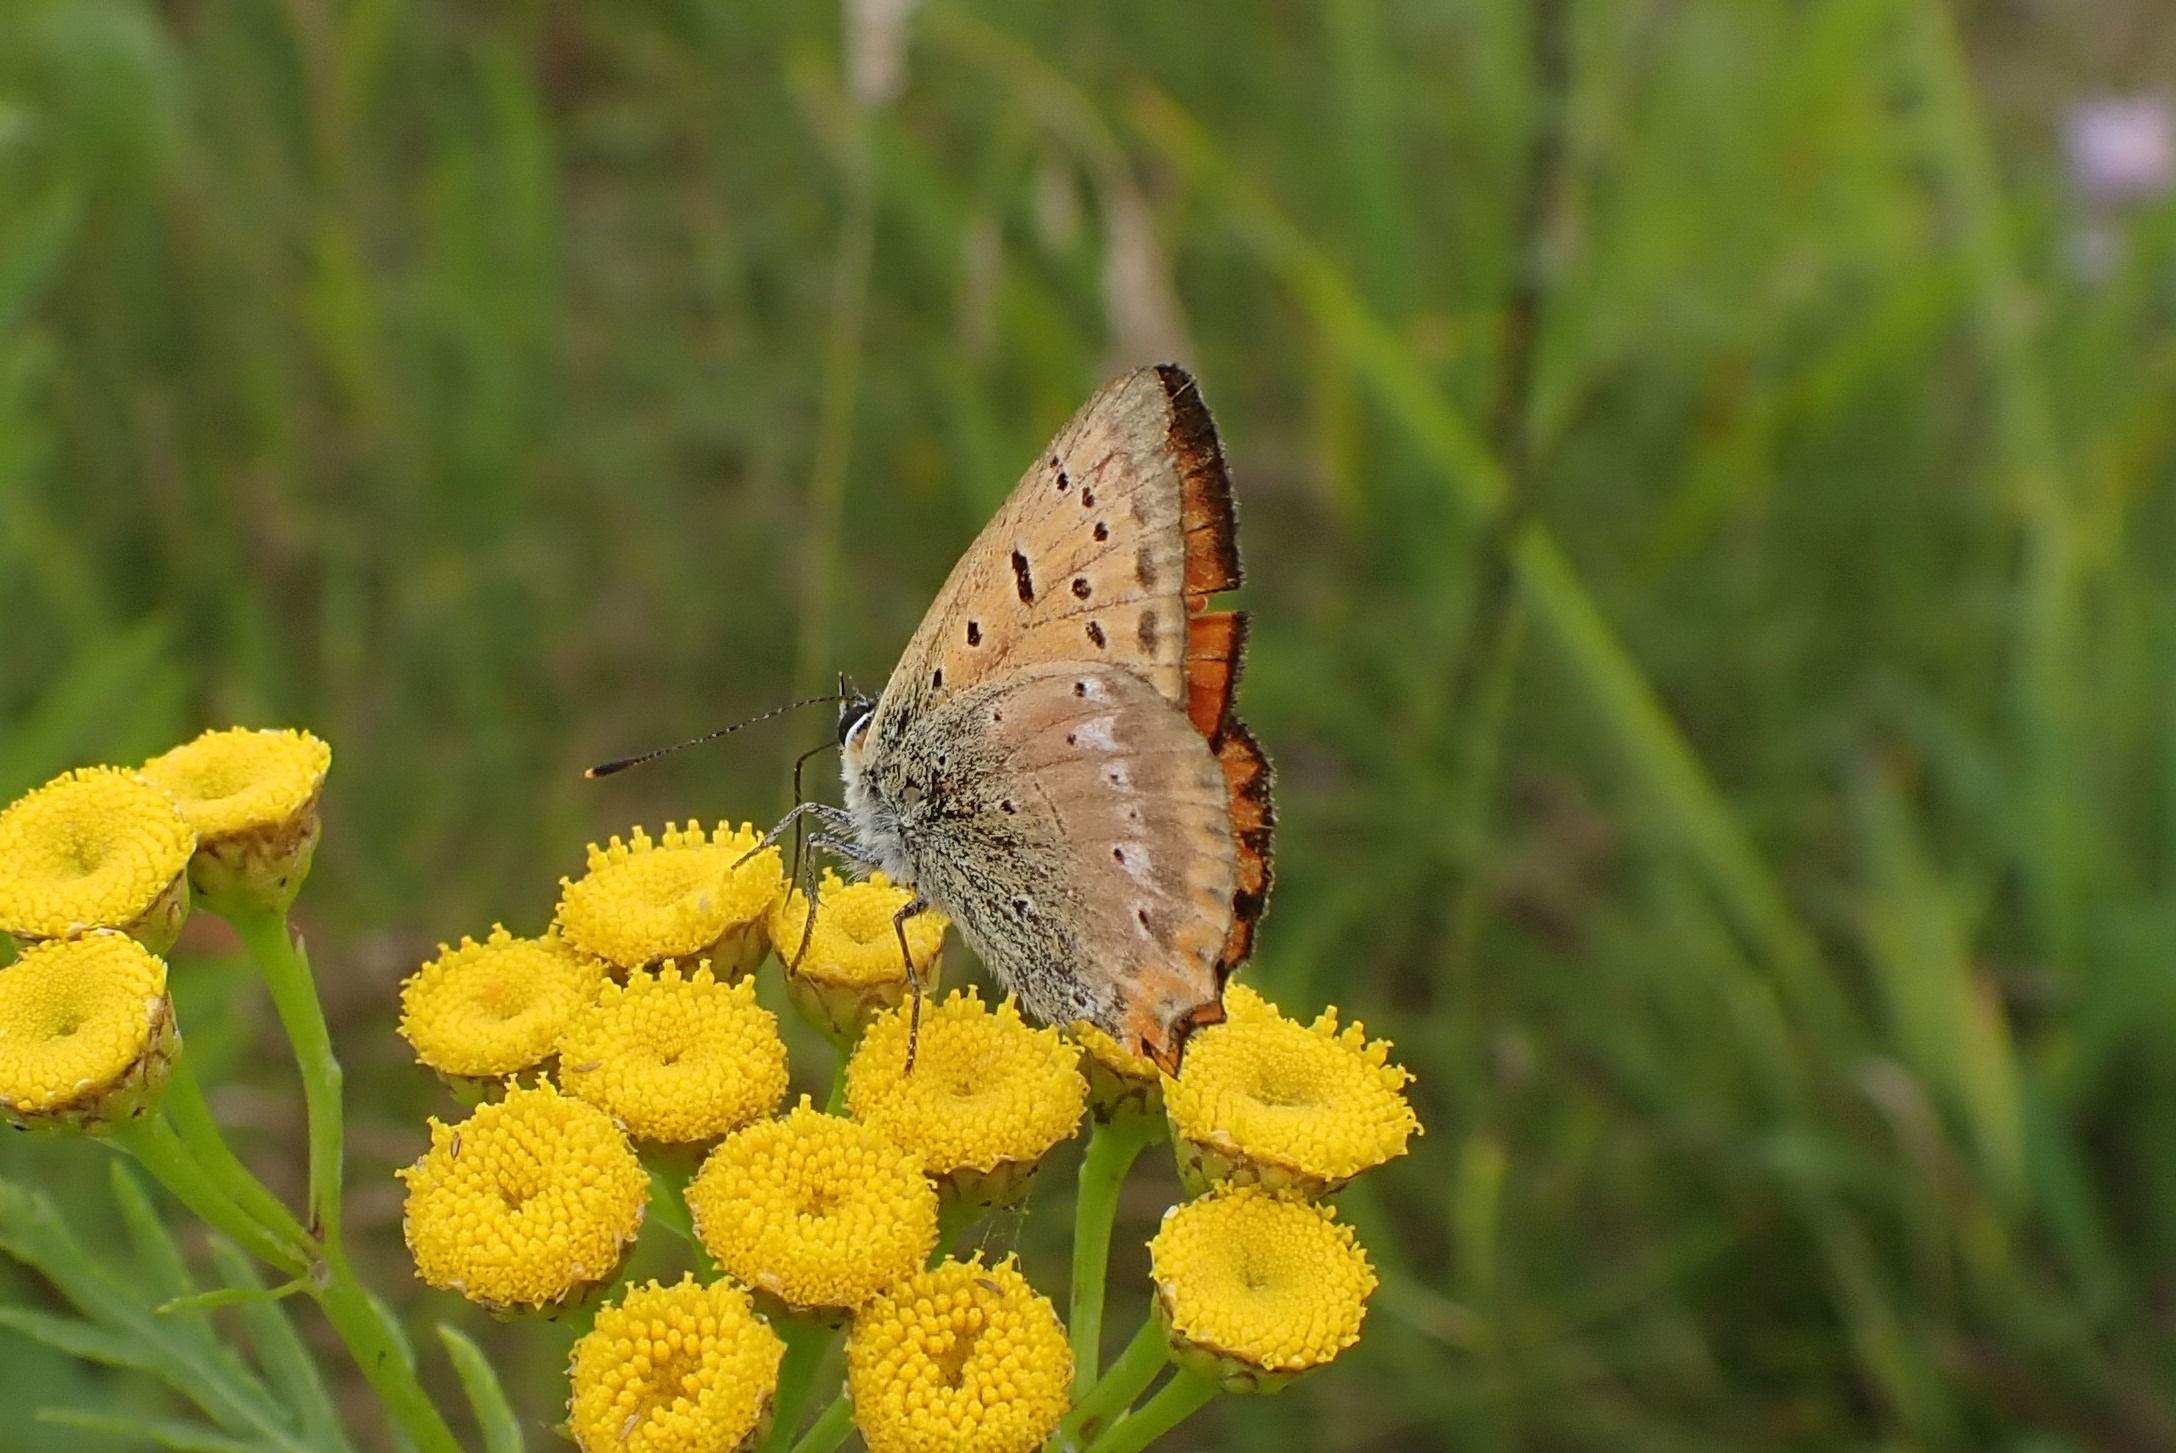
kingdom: Animalia
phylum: Arthropoda
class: Insecta
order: Lepidoptera
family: Lycaenidae
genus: Lycaena
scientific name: Lycaena virgaureae
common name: Dukatsommerfugl
